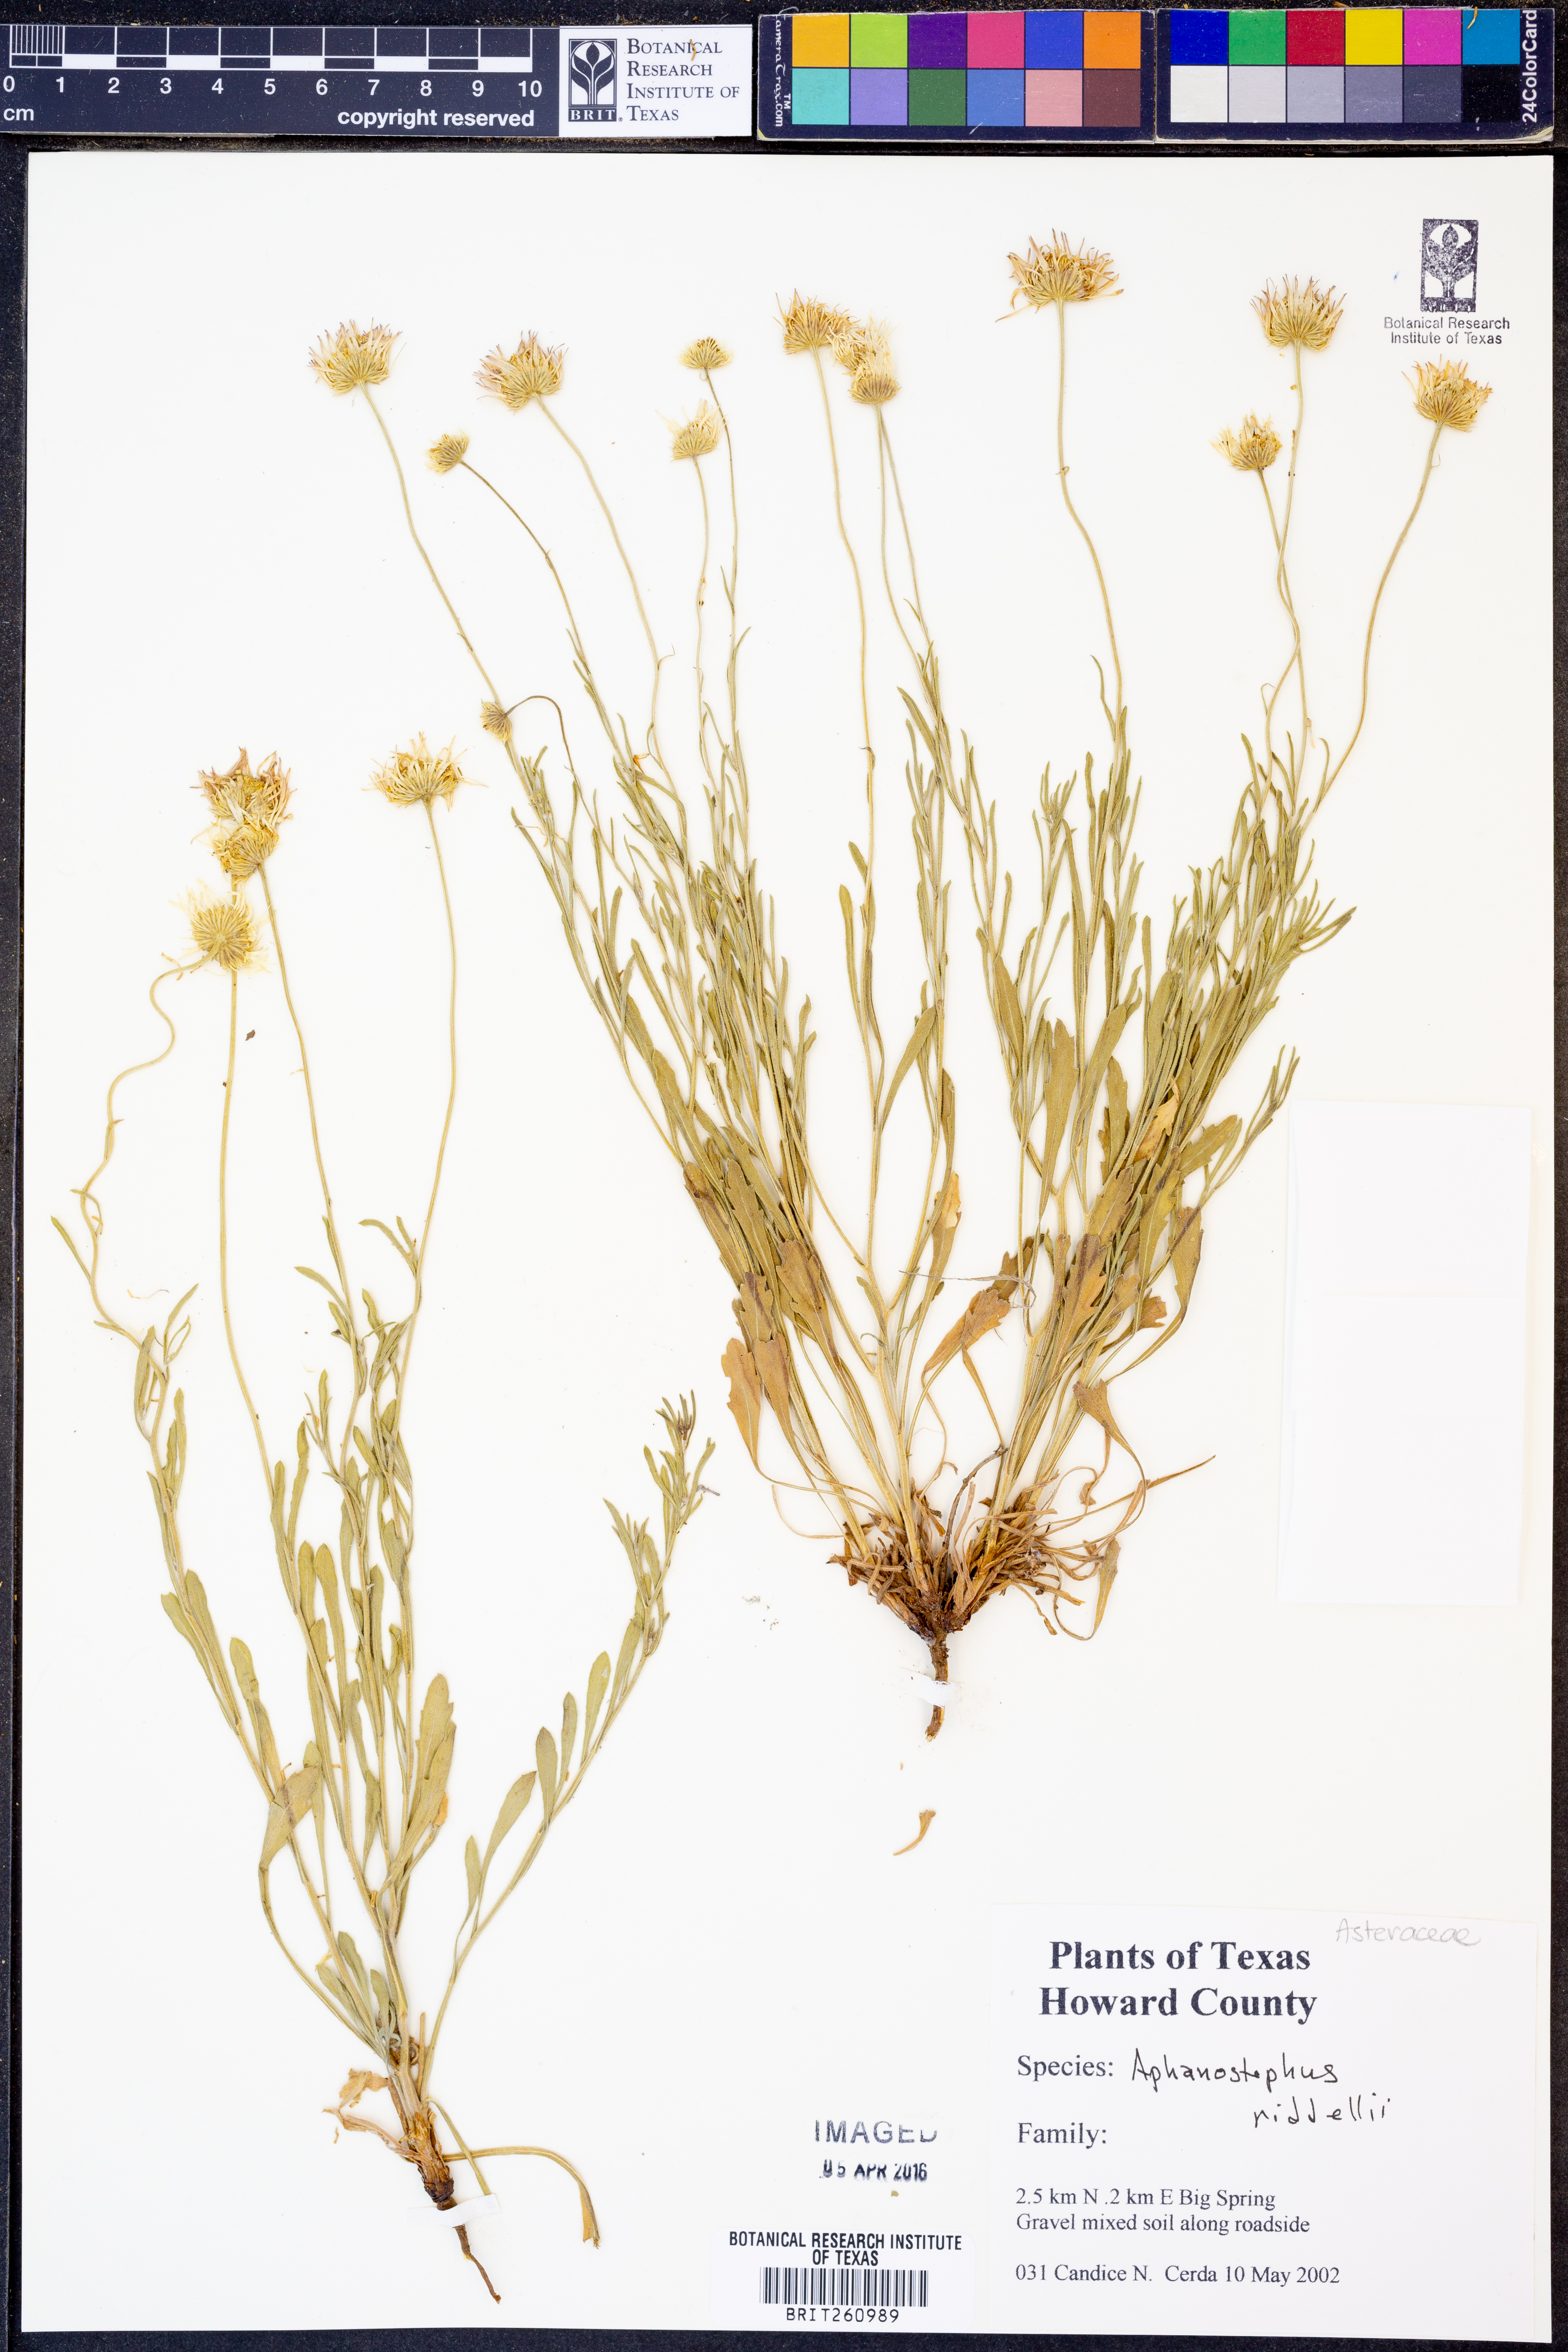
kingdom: Plantae
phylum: Tracheophyta
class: Magnoliopsida
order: Asterales
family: Asteraceae
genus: Aphanostephus
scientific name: Aphanostephus riddellii
